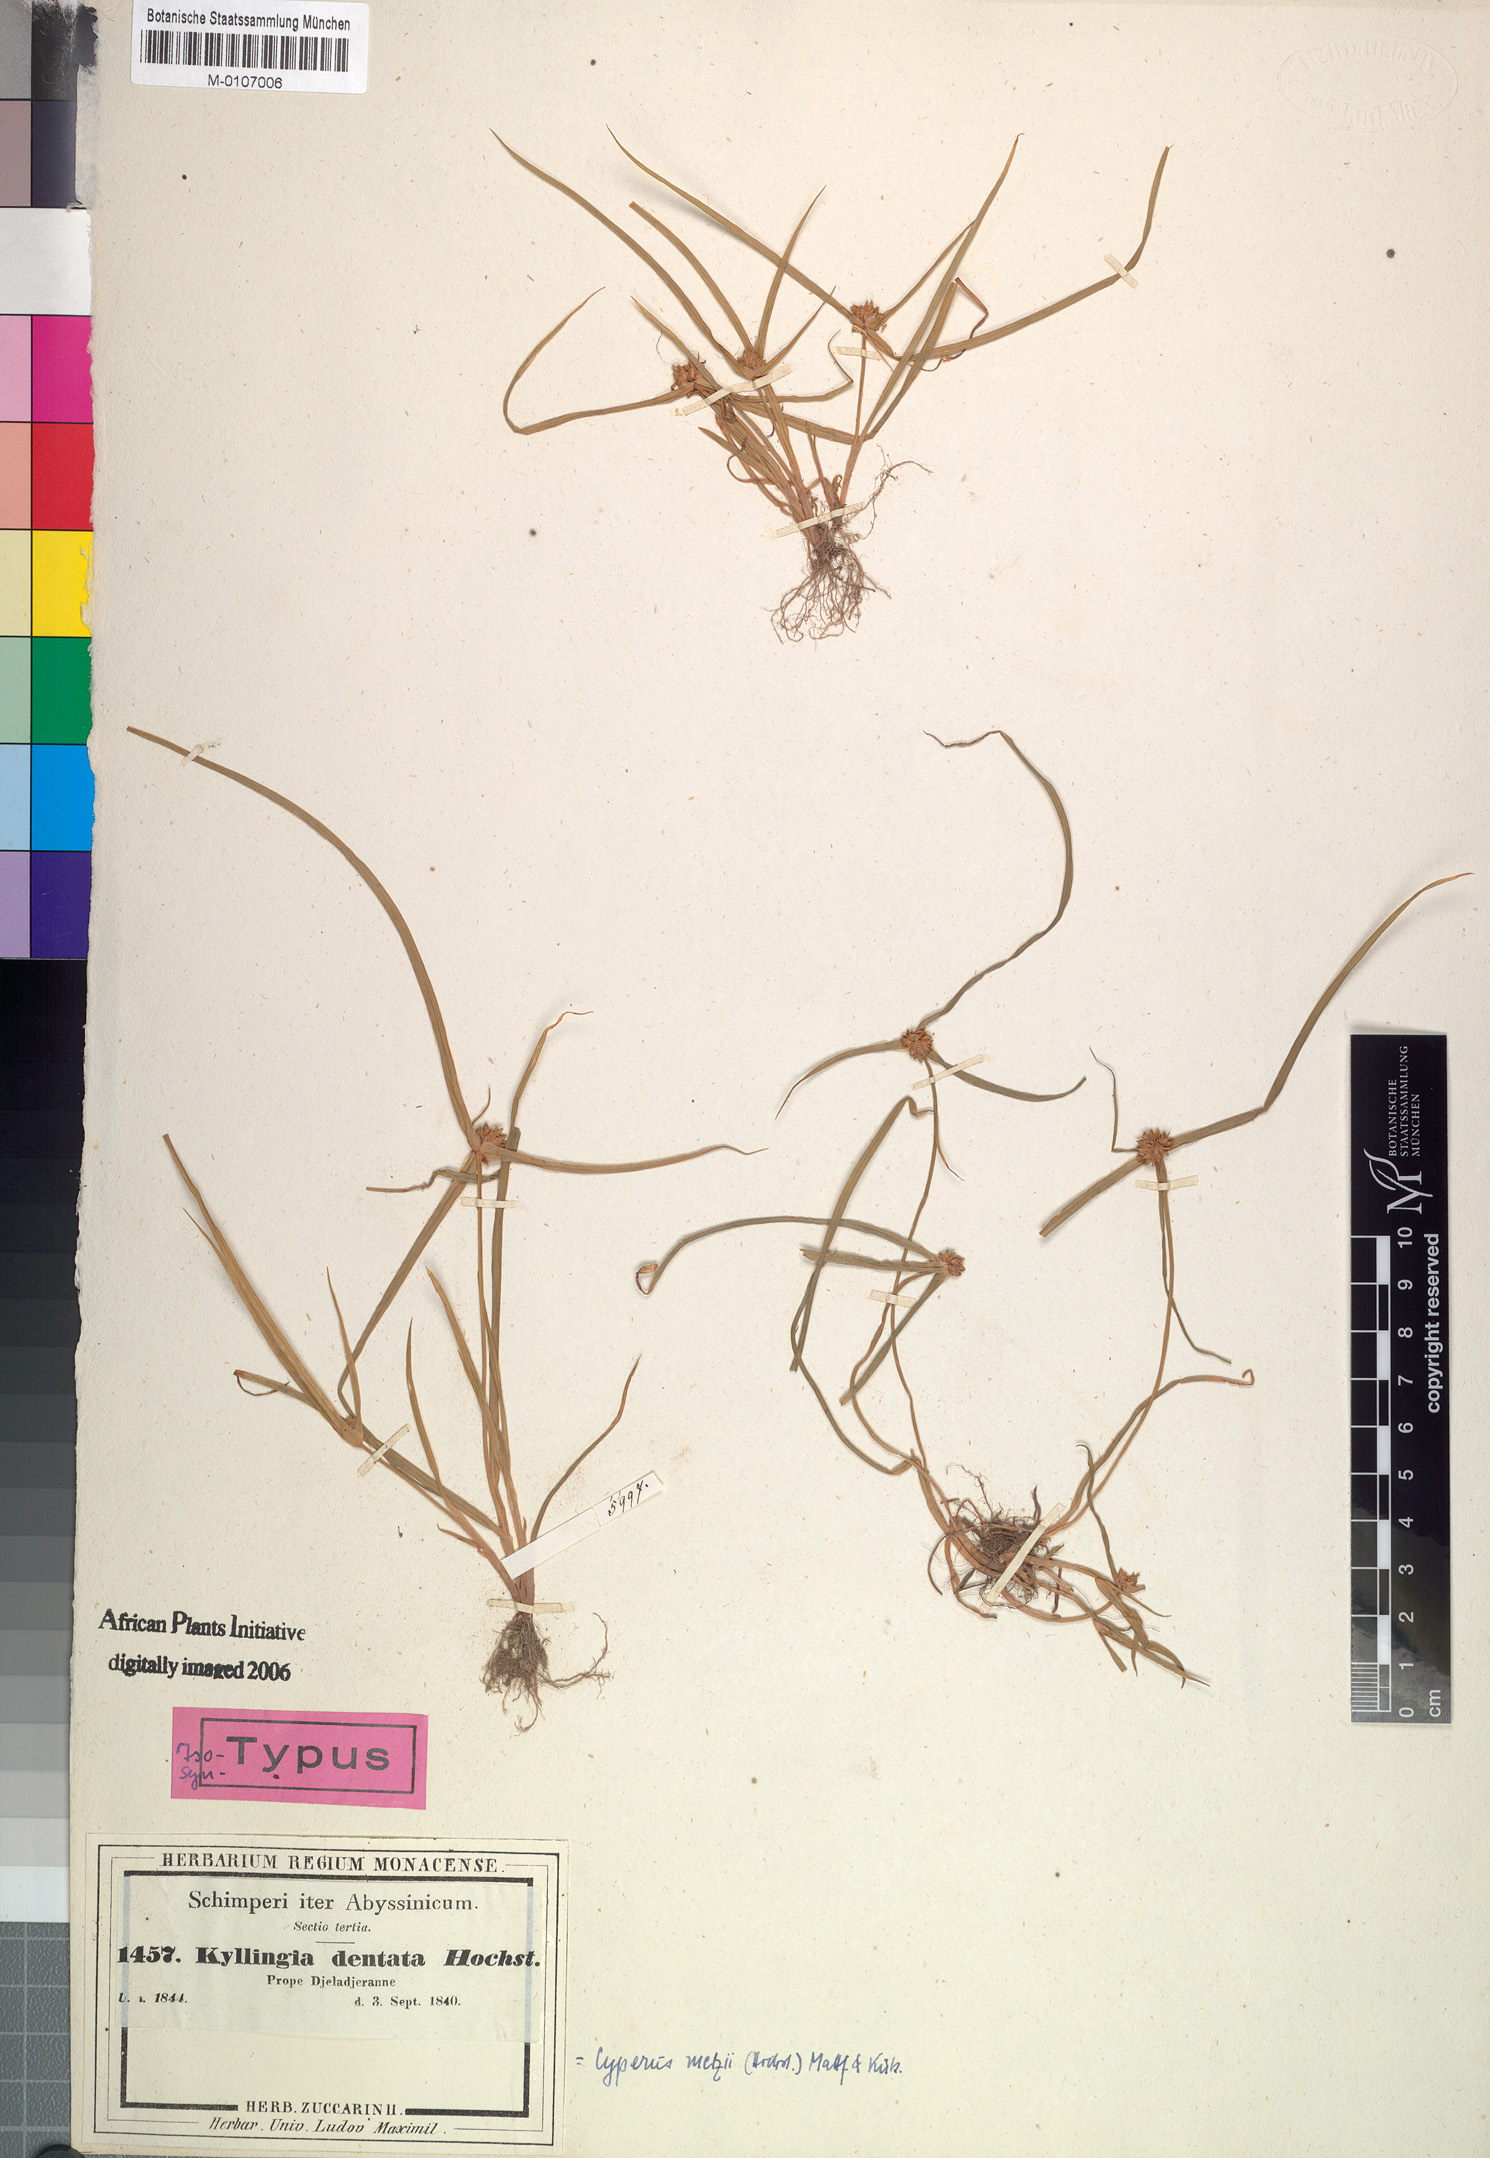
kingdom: Plantae
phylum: Tracheophyta
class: Liliopsida
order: Poales
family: Cyperaceae
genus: Cyperus
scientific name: Cyperus metzii
